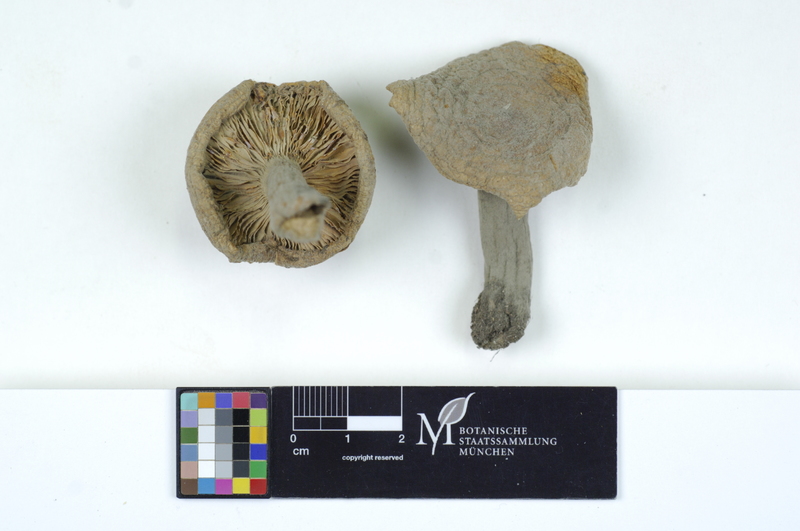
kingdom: Fungi
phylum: Basidiomycota
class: Agaricomycetes
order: Russulales
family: Russulaceae
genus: Lactarius
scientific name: Lactarius pallidus
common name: Pale milkcap
